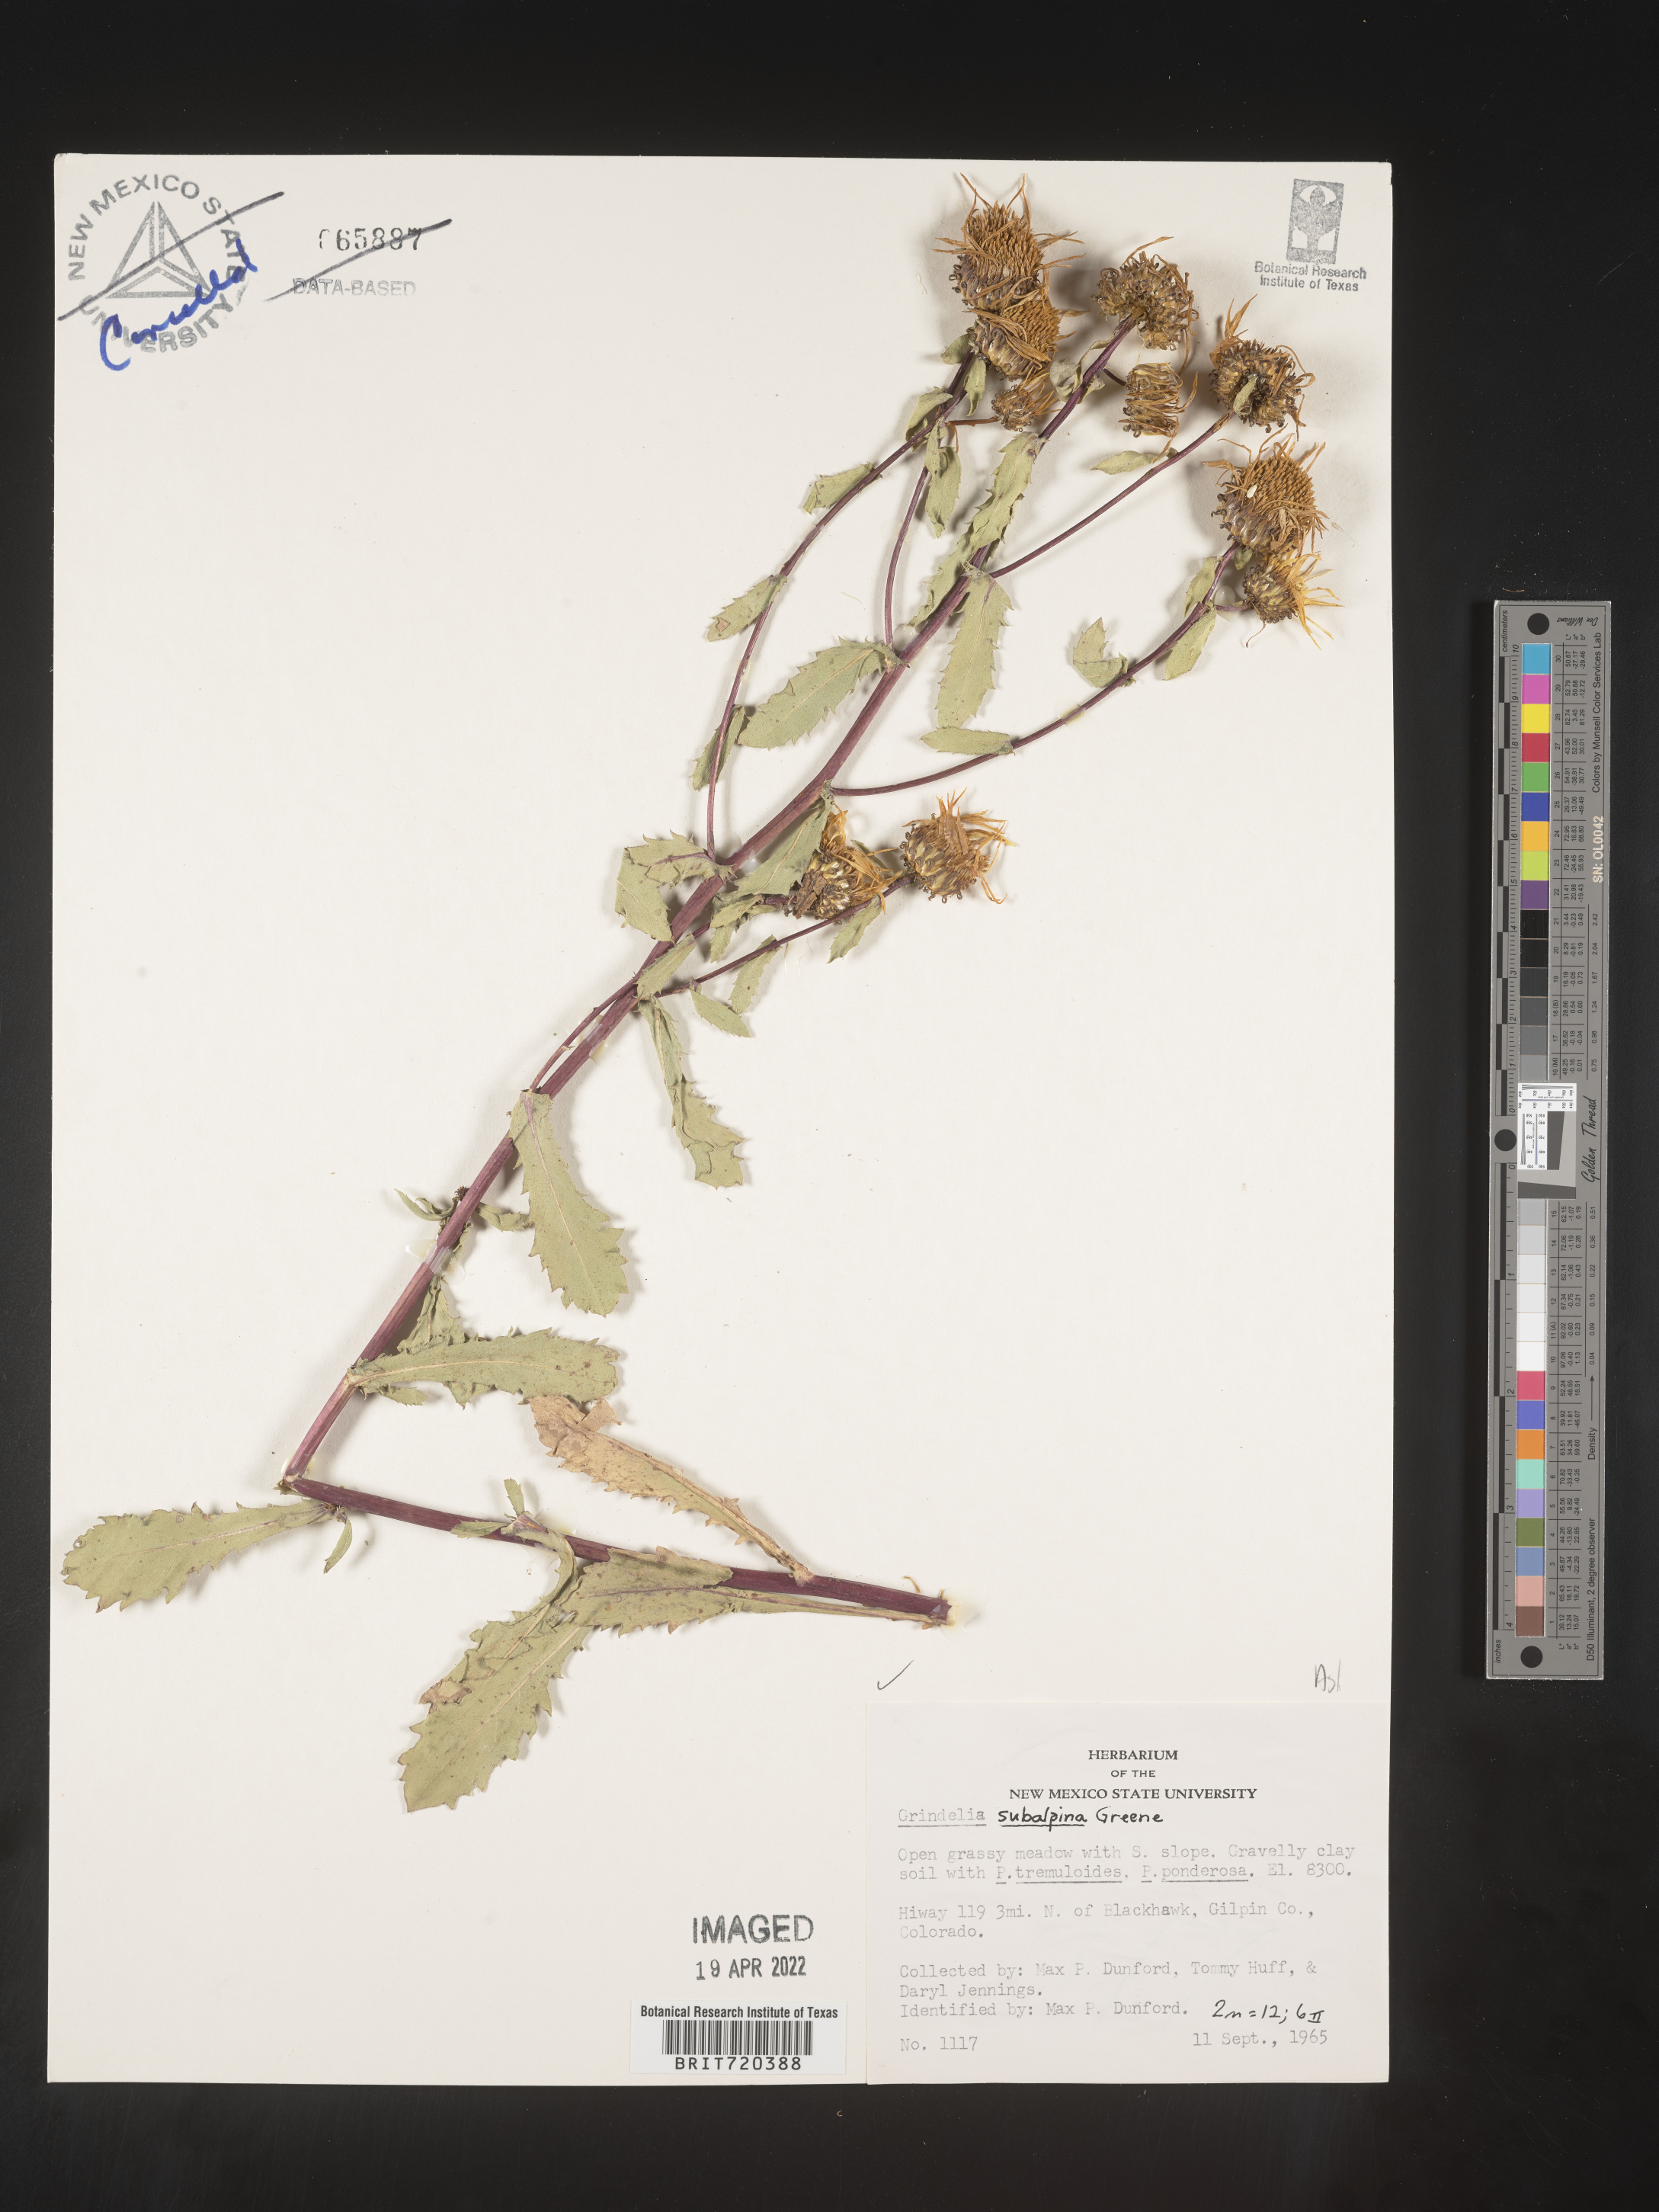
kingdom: Plantae
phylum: Tracheophyta
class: Magnoliopsida
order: Asterales
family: Asteraceae
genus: Grindelia
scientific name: Grindelia subalpina
